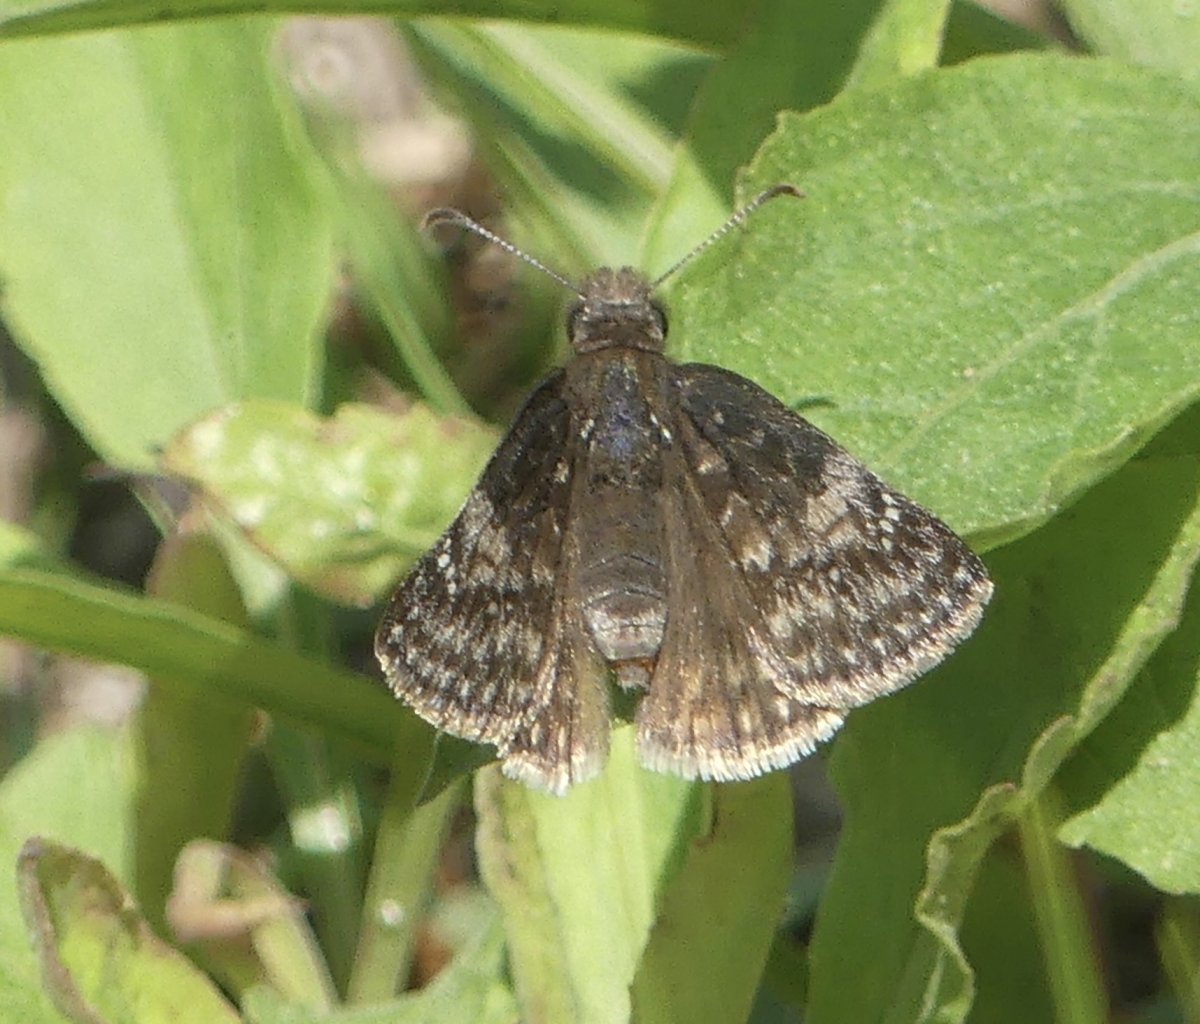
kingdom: Animalia
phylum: Arthropoda
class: Insecta
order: Lepidoptera
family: Hesperiidae
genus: Gesta
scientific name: Gesta
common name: Wild Indigo Duskywing
